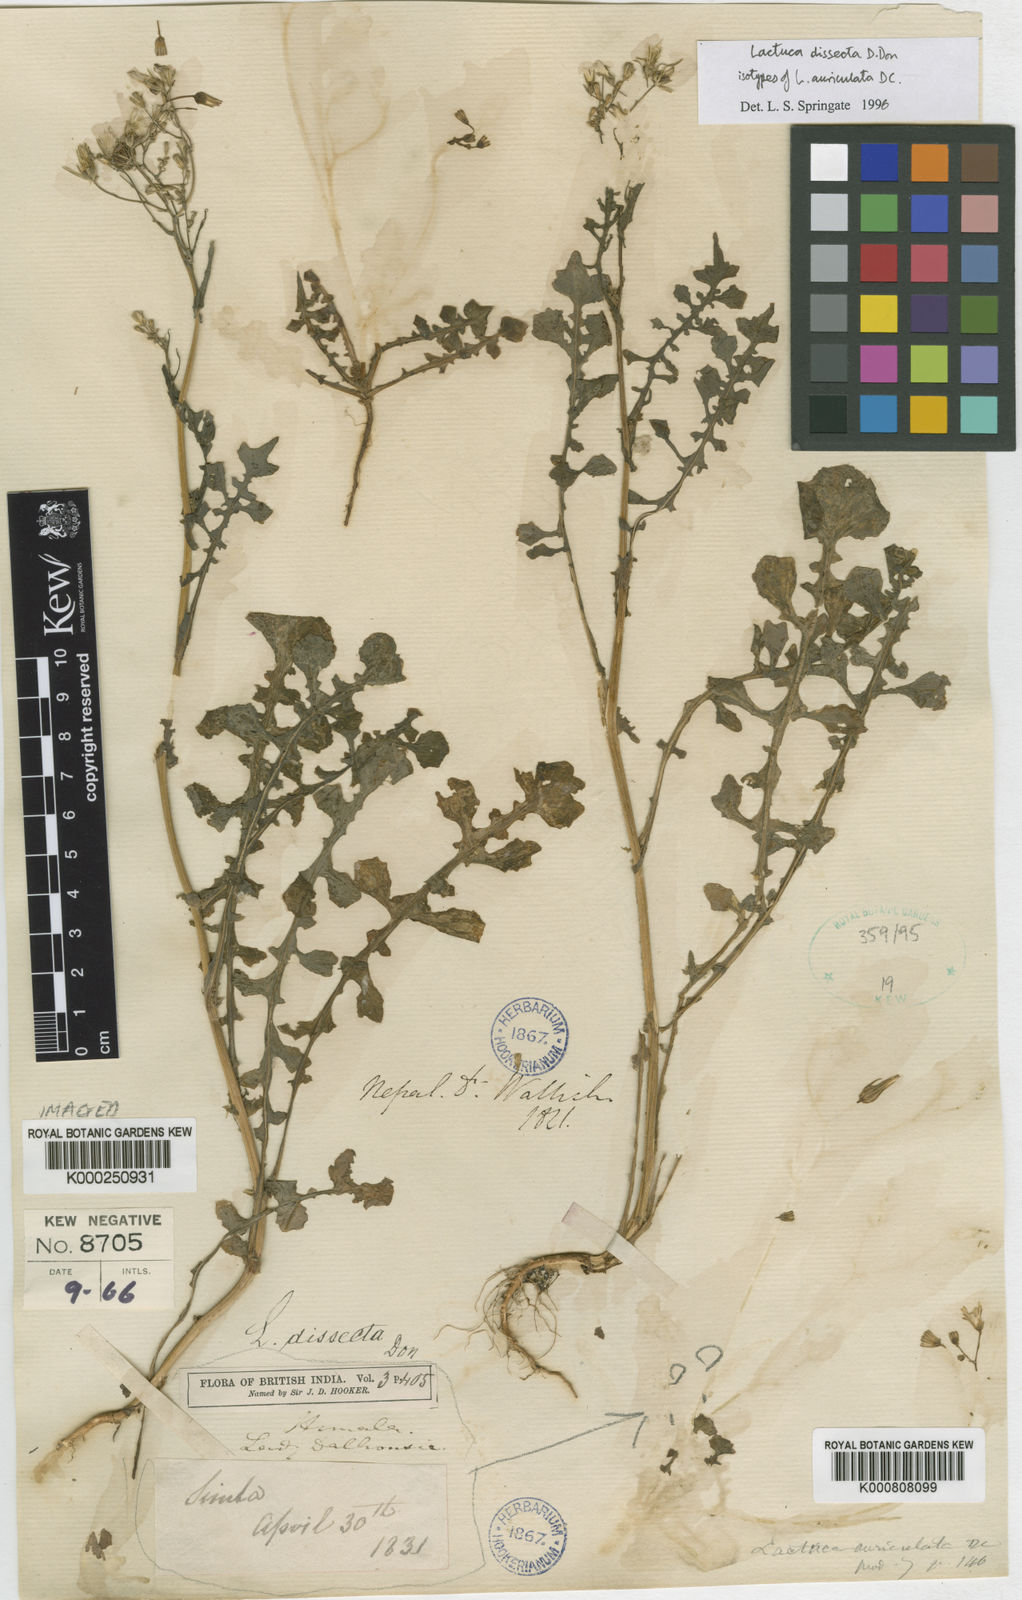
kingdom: Plantae
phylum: Tracheophyta
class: Magnoliopsida
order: Asterales
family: Asteraceae
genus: Lactuca
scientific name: Lactuca dissecta
